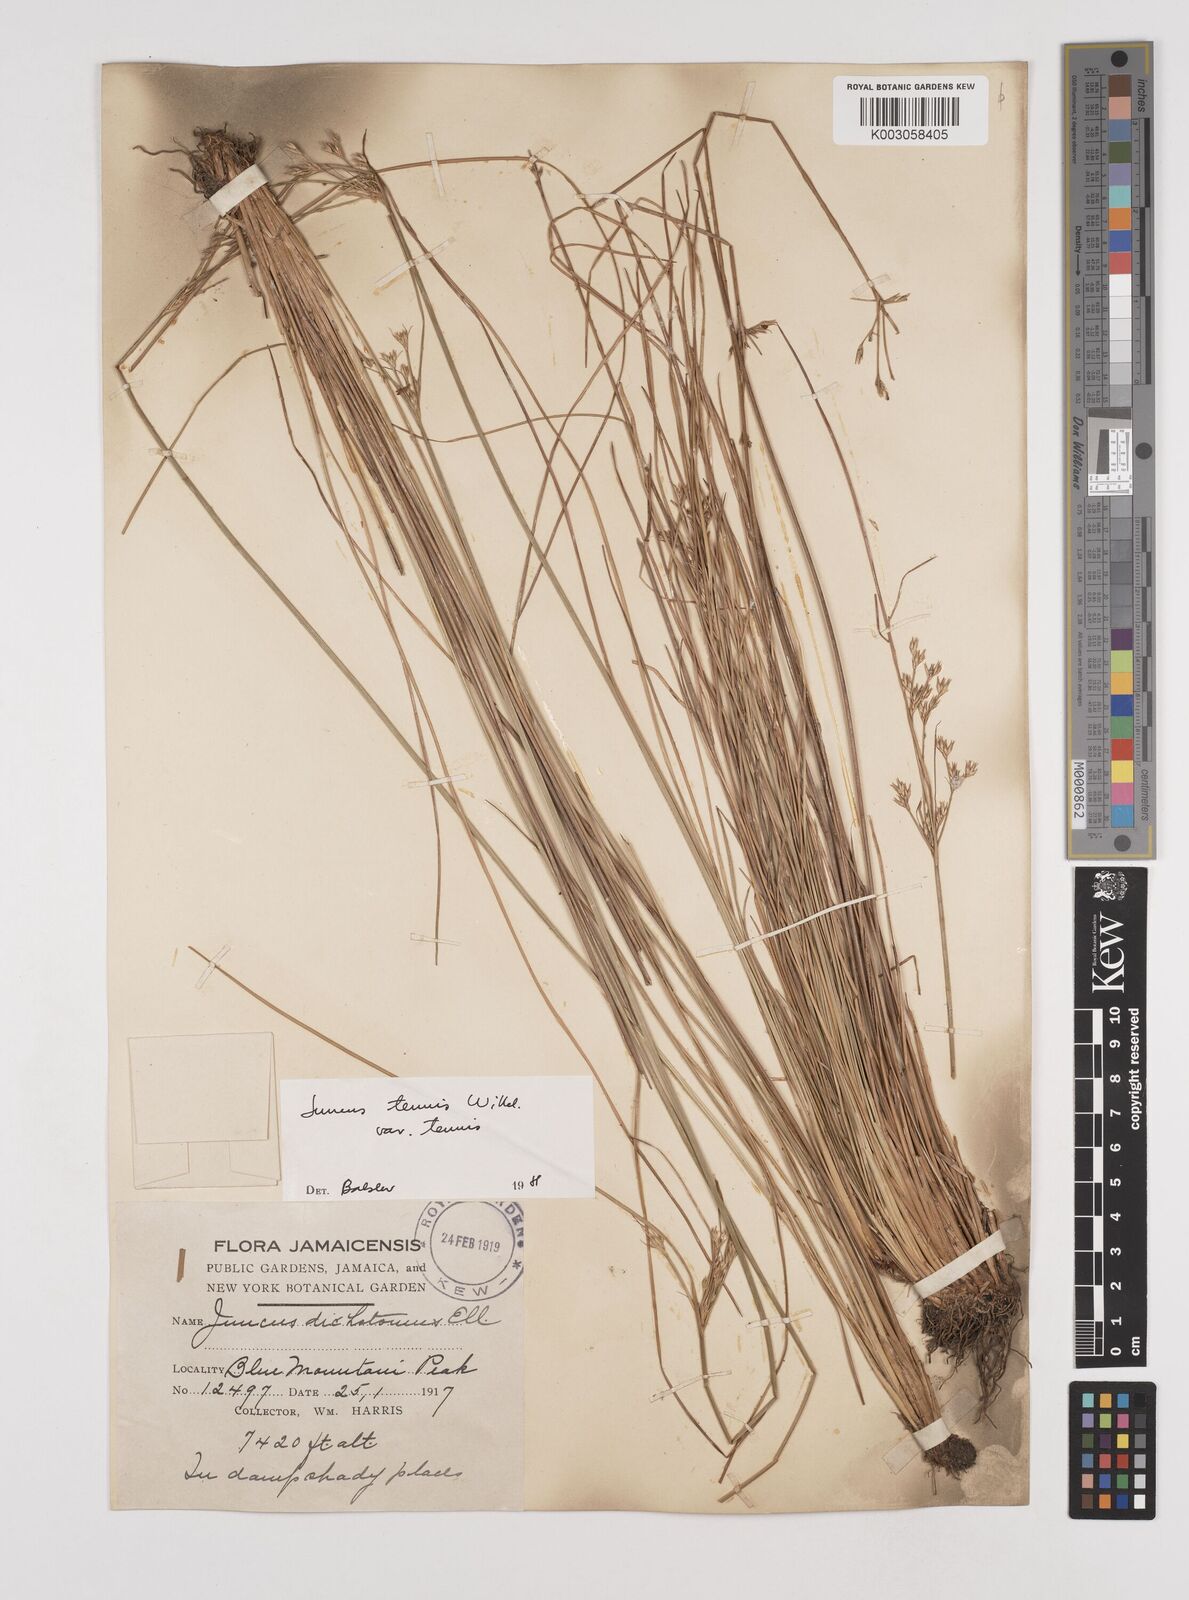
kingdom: Plantae
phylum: Tracheophyta
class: Liliopsida
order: Poales
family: Juncaceae
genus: Juncus
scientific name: Juncus tenuis
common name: Slender rush
